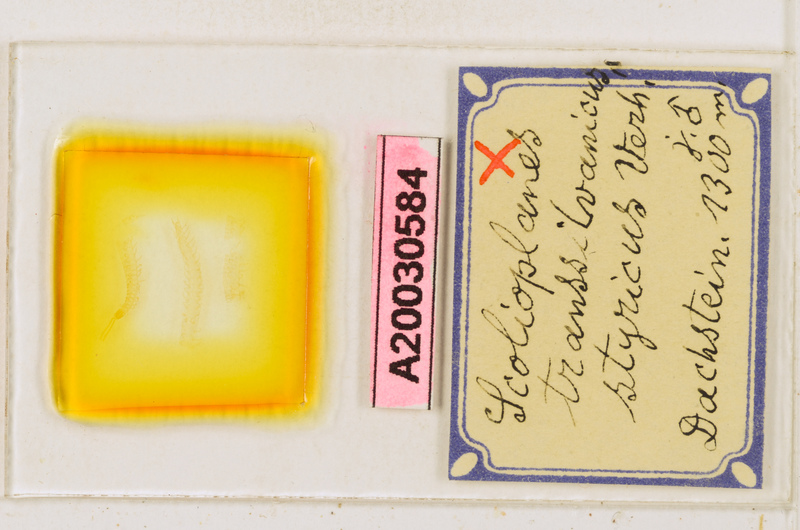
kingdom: Animalia
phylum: Arthropoda
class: Chilopoda
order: Geophilomorpha
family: Linotaeniidae
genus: Strigamia
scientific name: Strigamia transsilvanica
